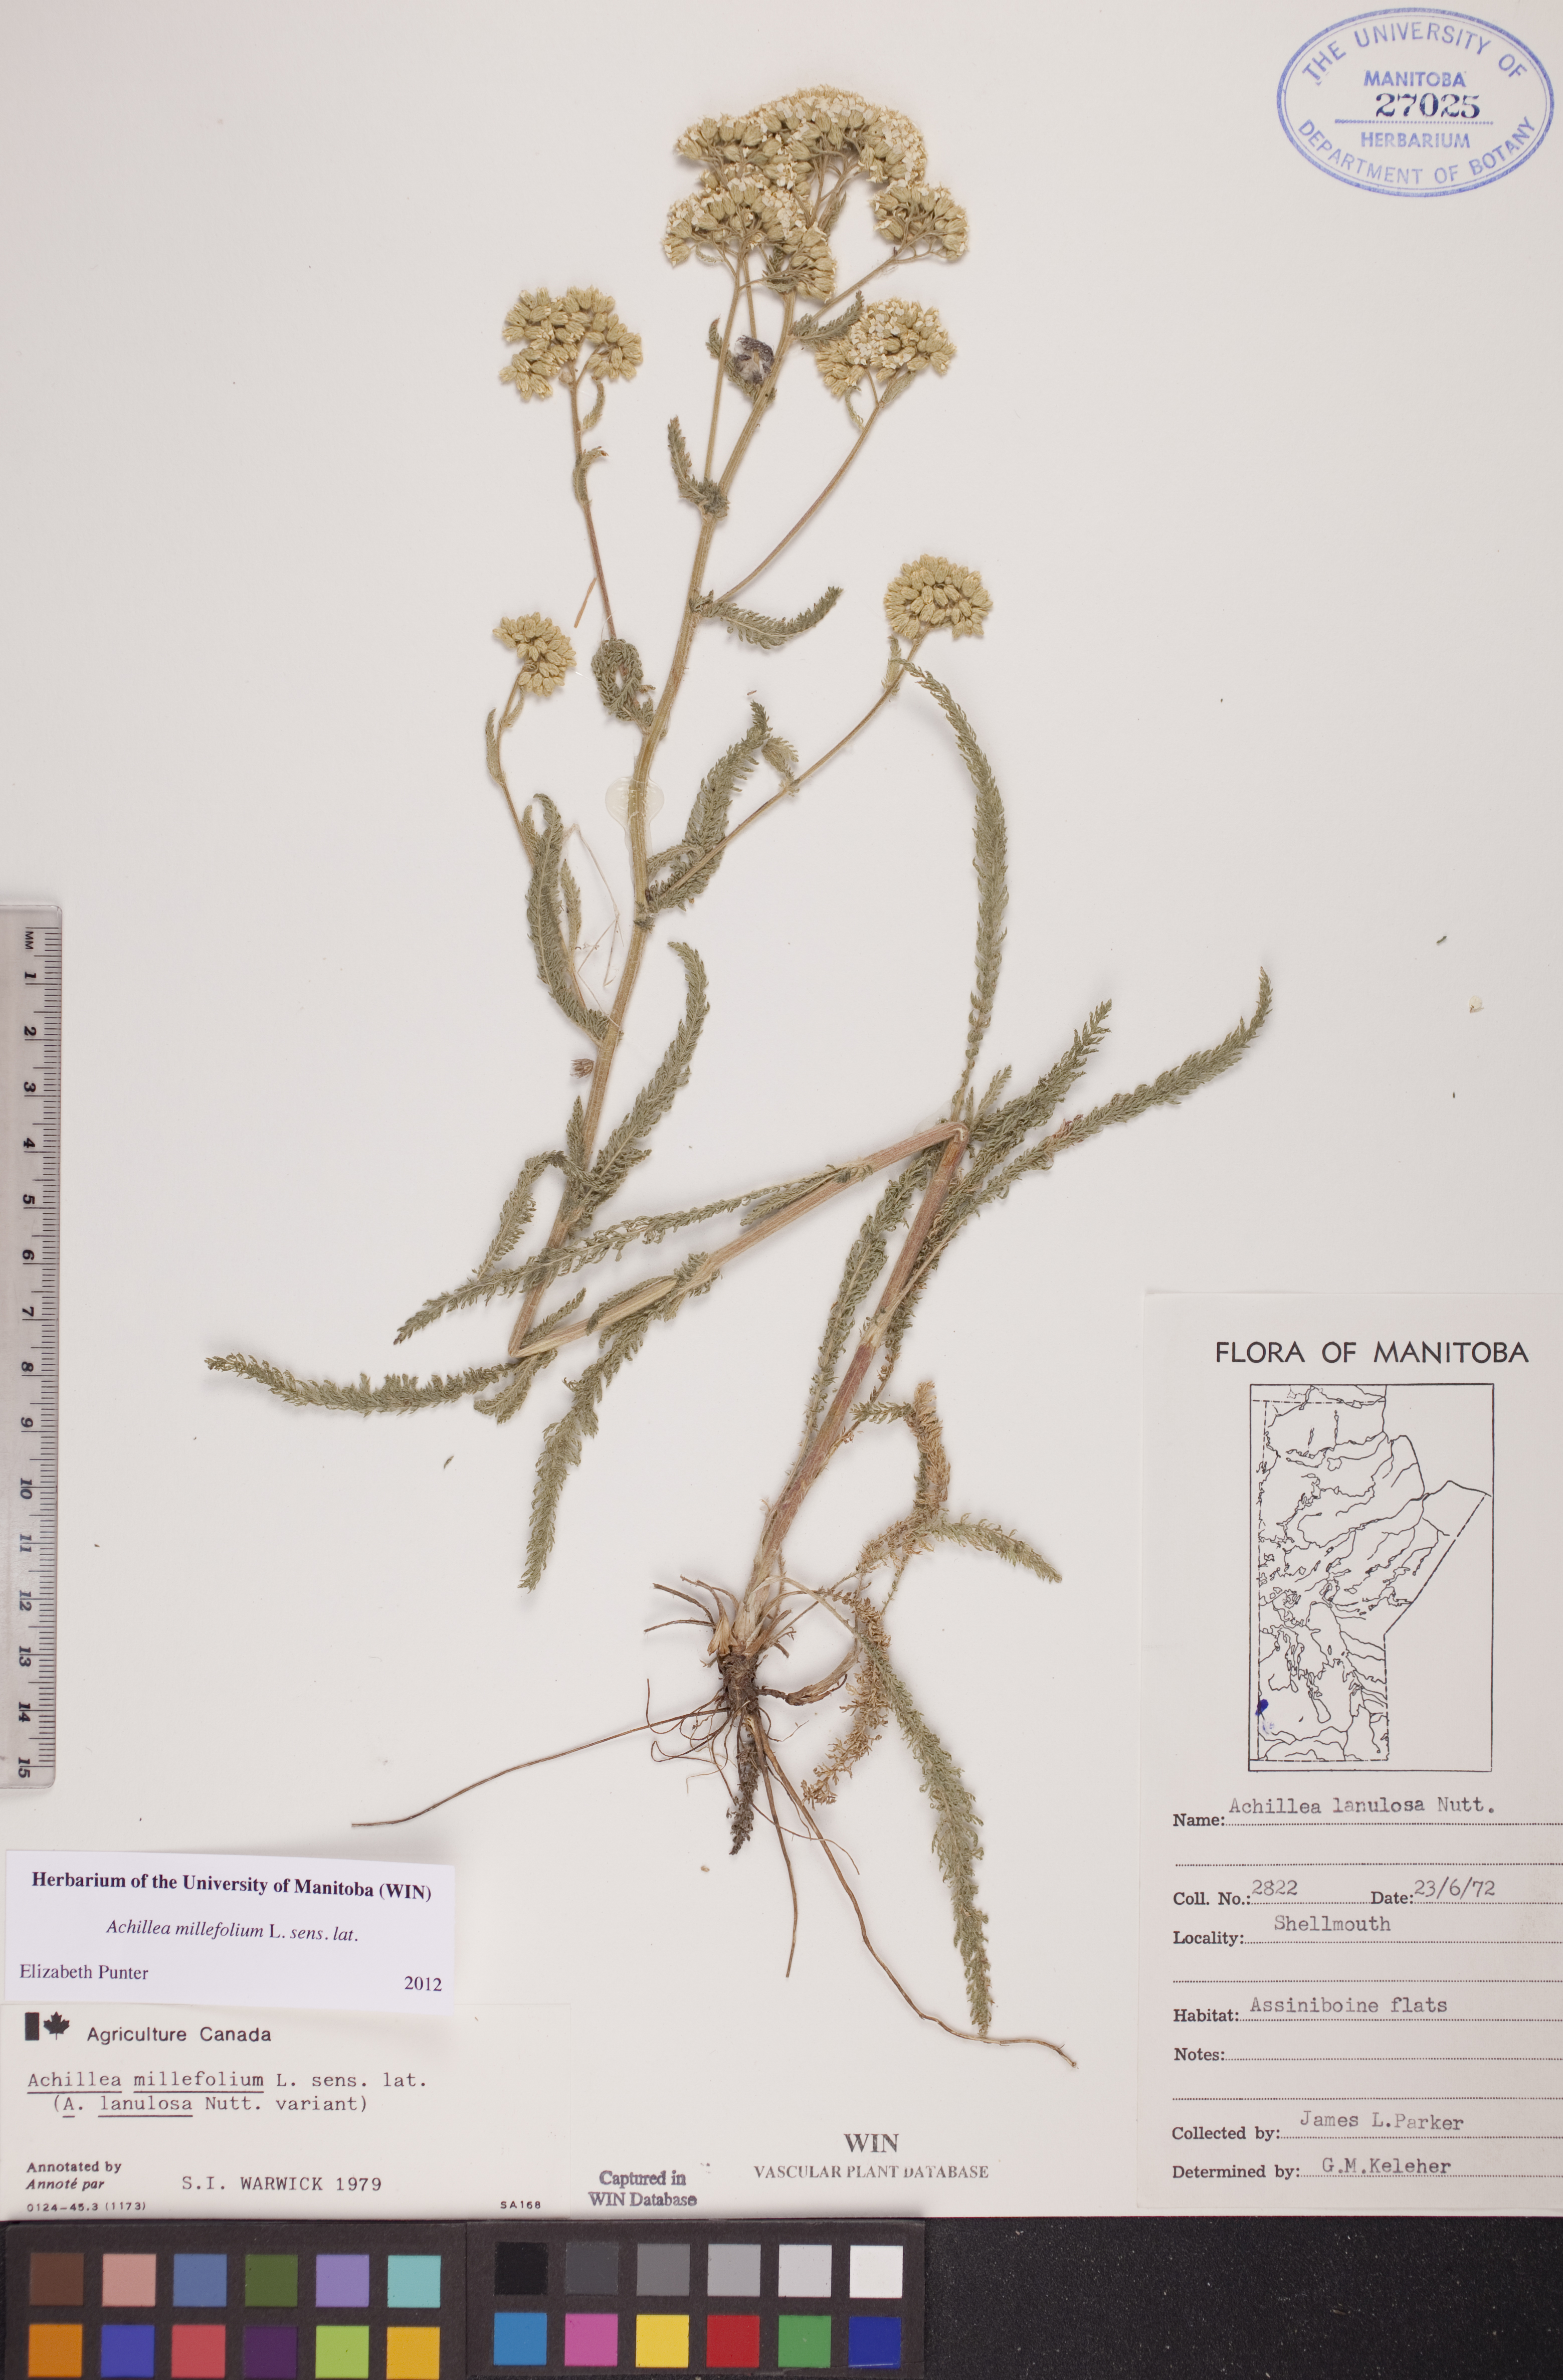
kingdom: Plantae
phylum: Tracheophyta
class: Magnoliopsida
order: Asterales
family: Asteraceae
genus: Achillea
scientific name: Achillea millefolium
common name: Yarrow
